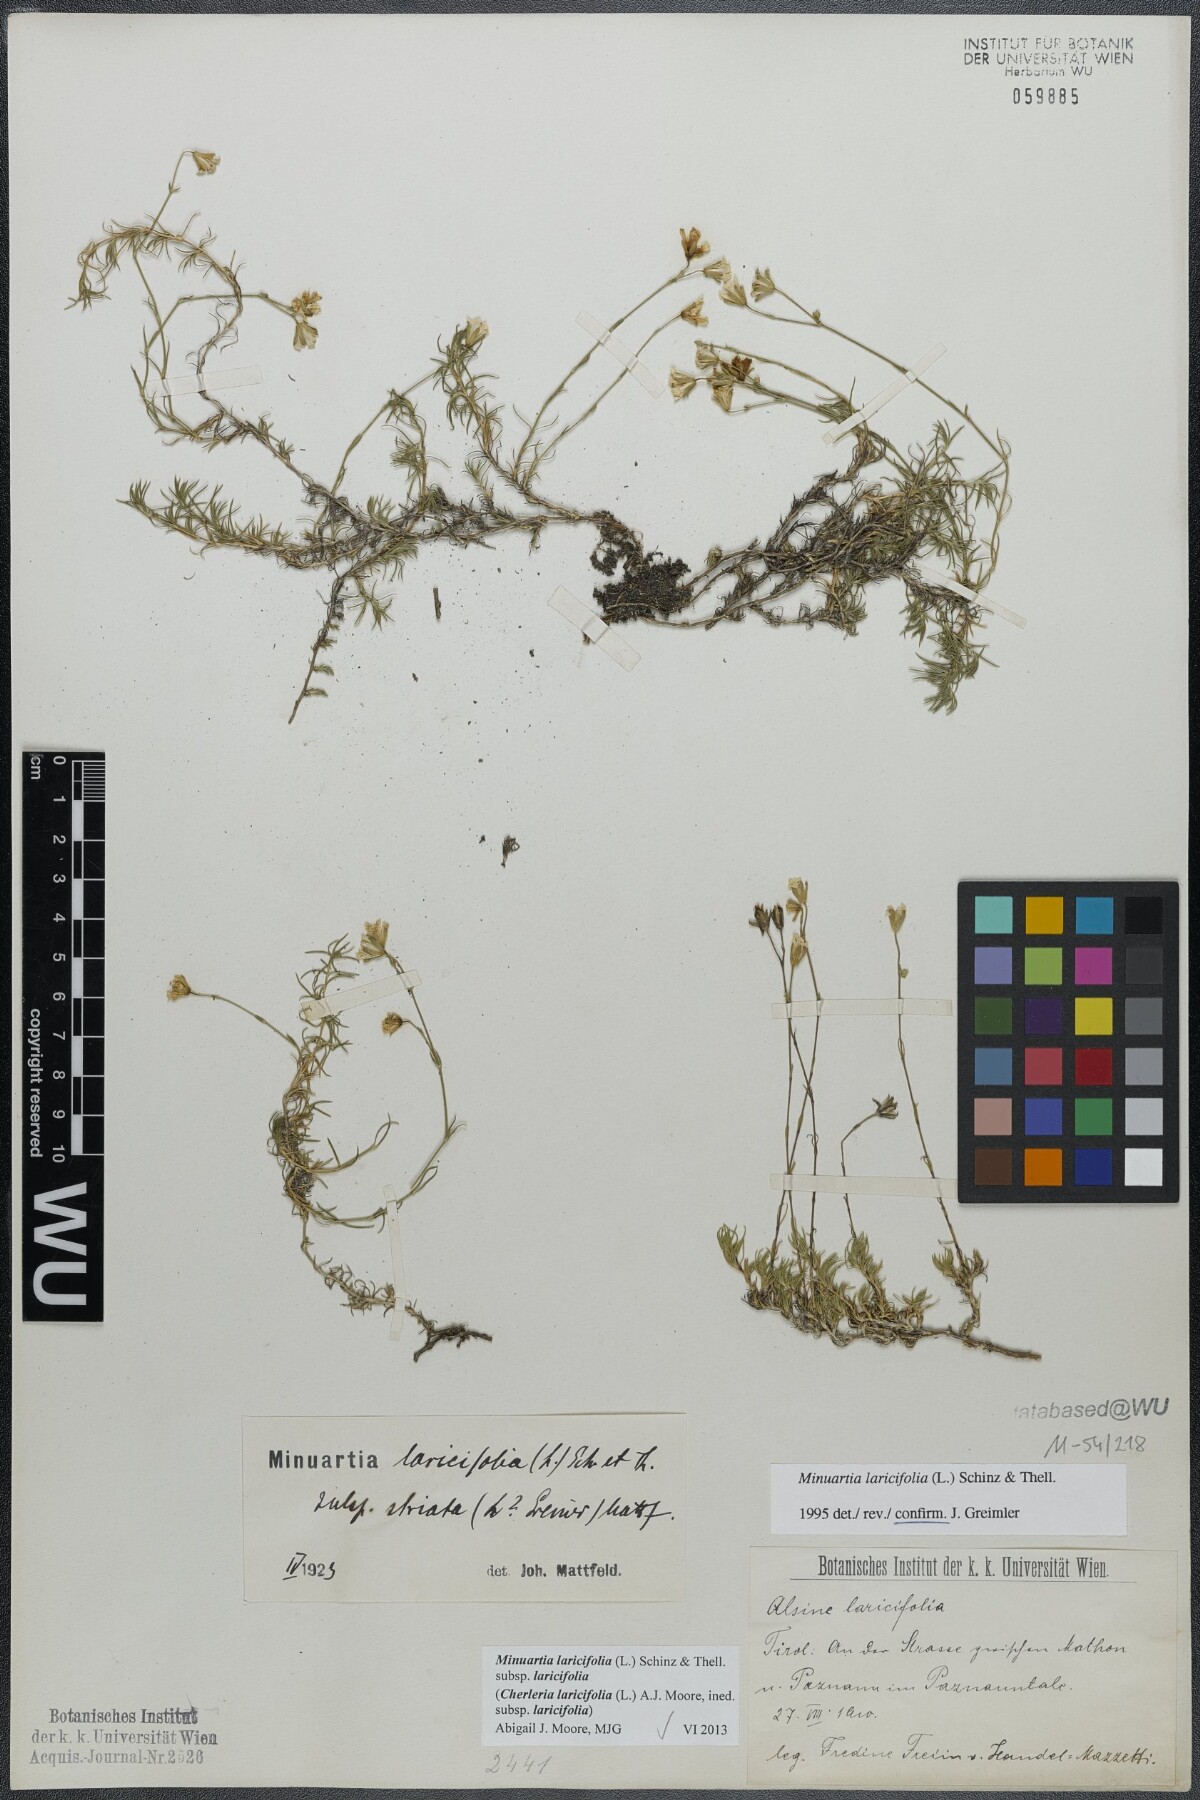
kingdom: Plantae
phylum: Tracheophyta
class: Magnoliopsida
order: Caryophyllales
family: Caryophyllaceae
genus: Cherleria
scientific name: Cherleria laricifolia
